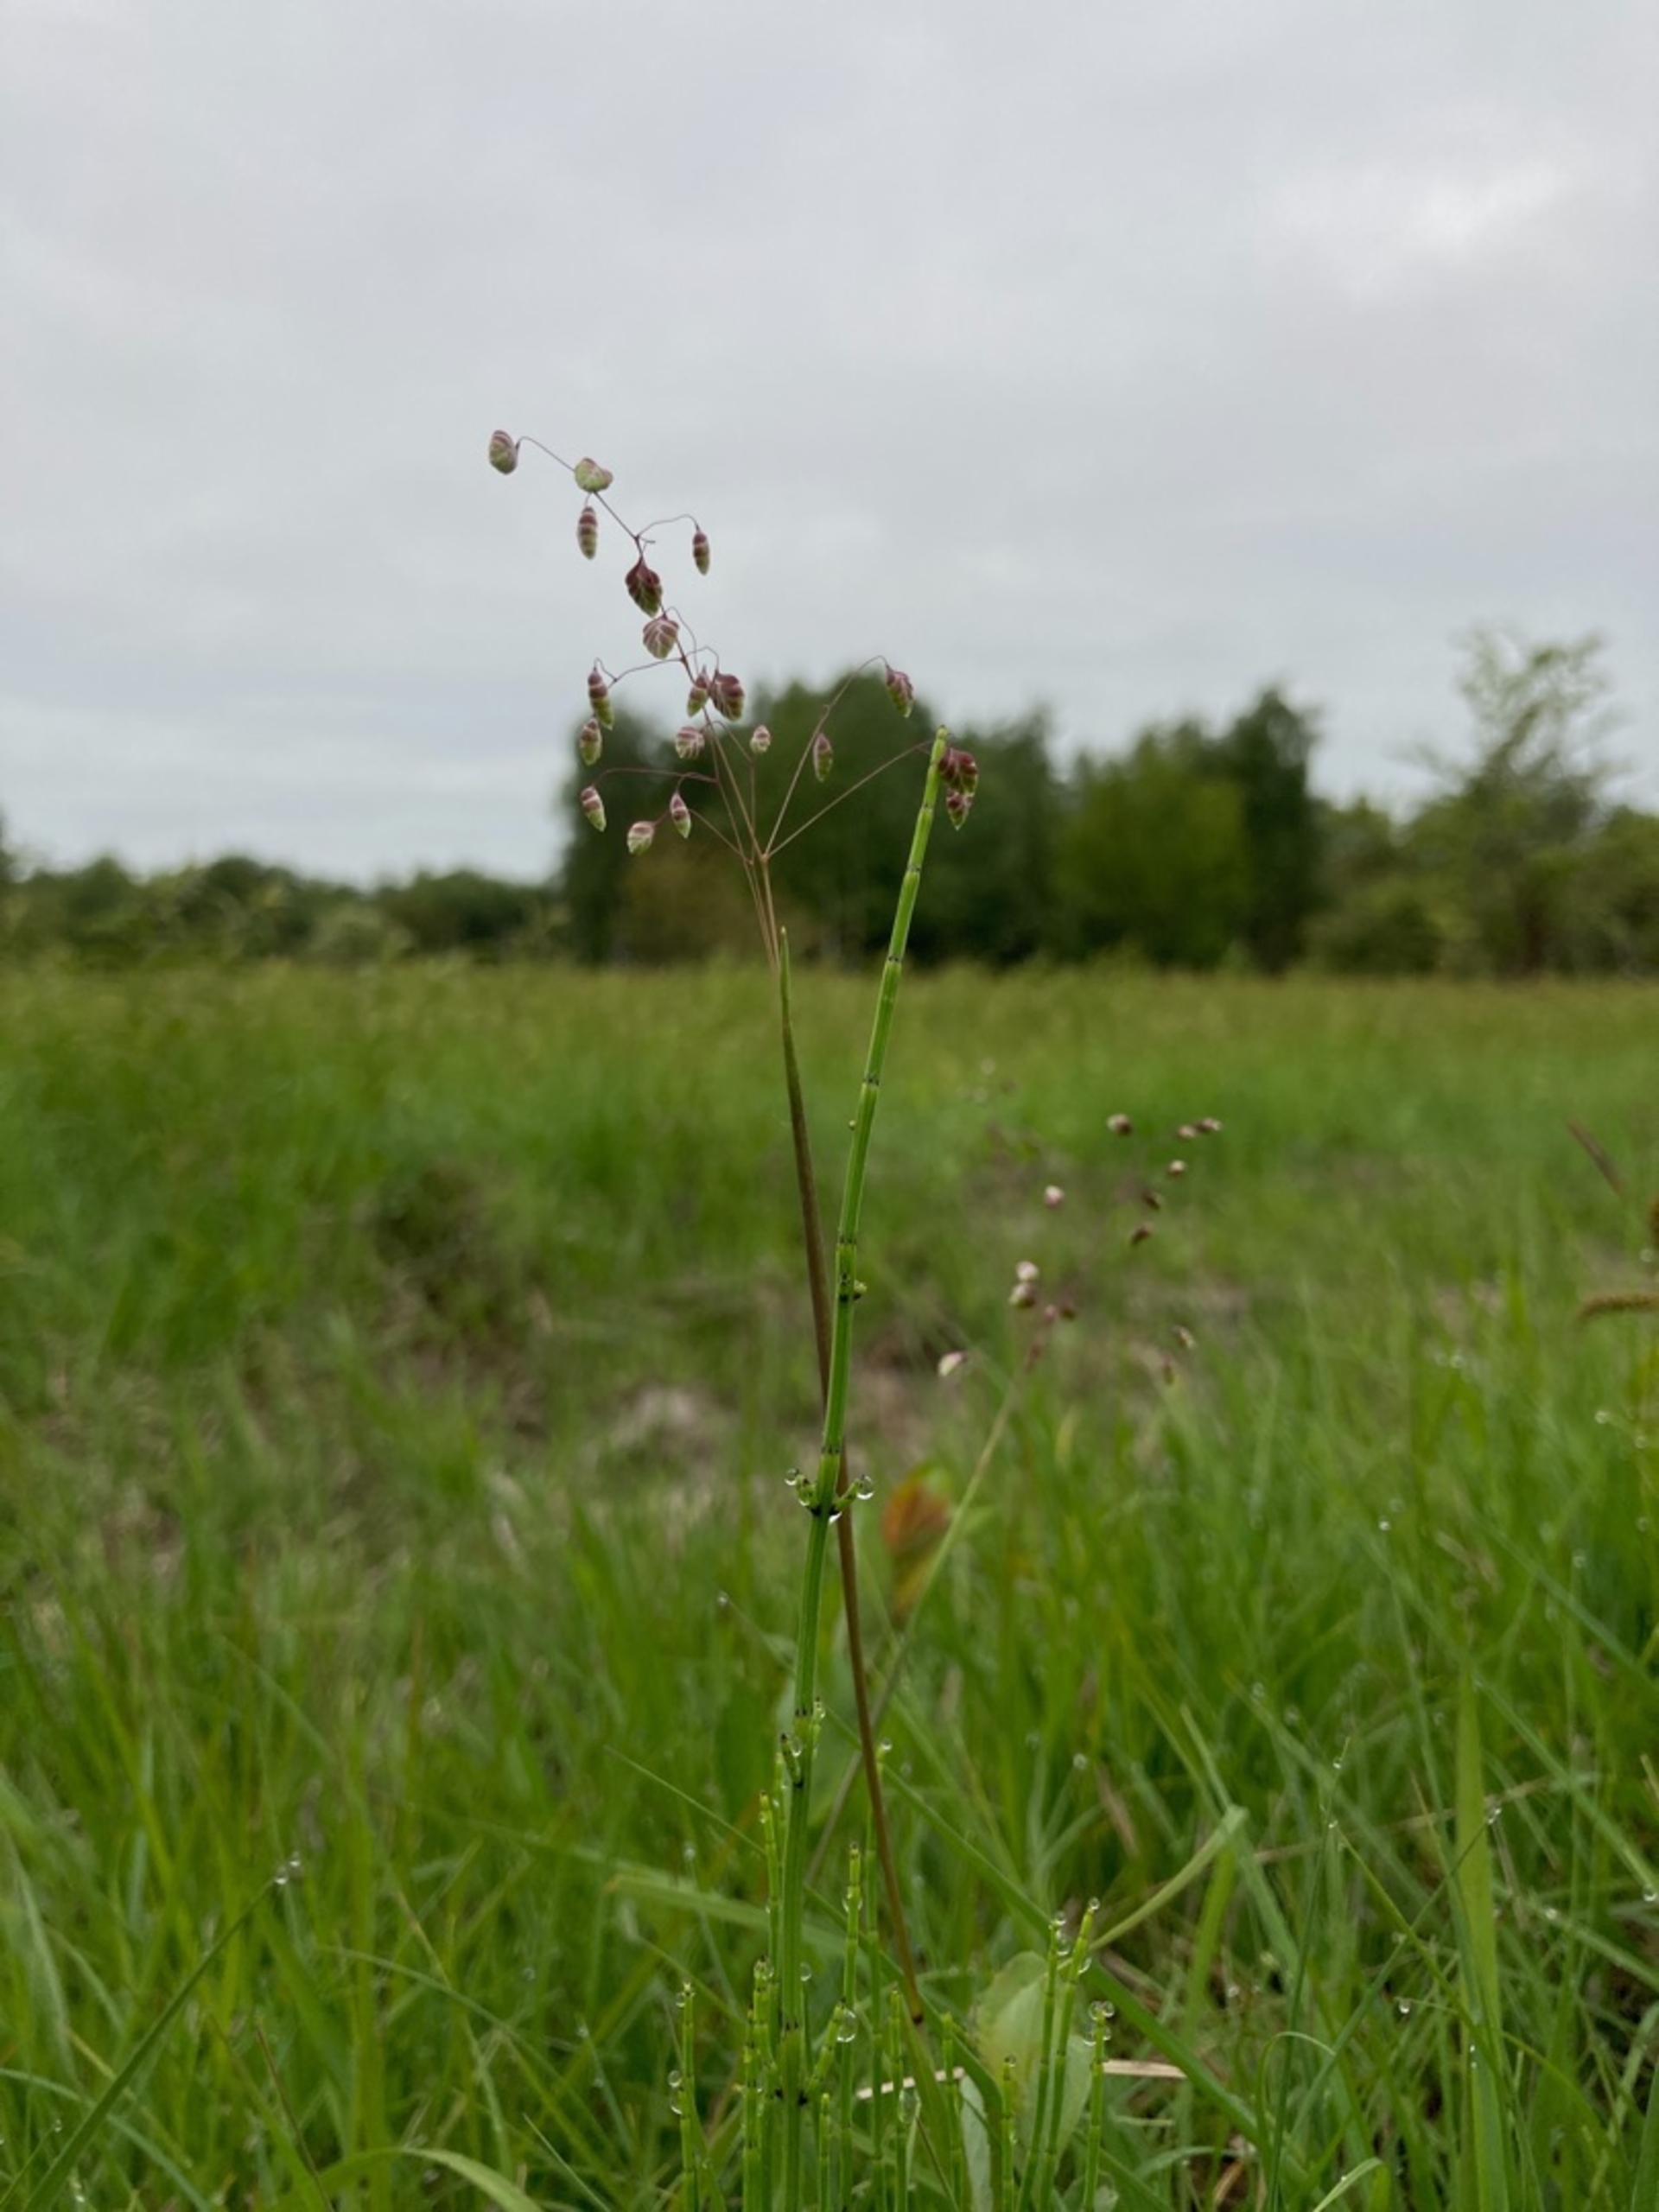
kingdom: Plantae
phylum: Tracheophyta
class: Liliopsida
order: Poales
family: Poaceae
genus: Briza
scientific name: Briza media
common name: Hjertegræs
